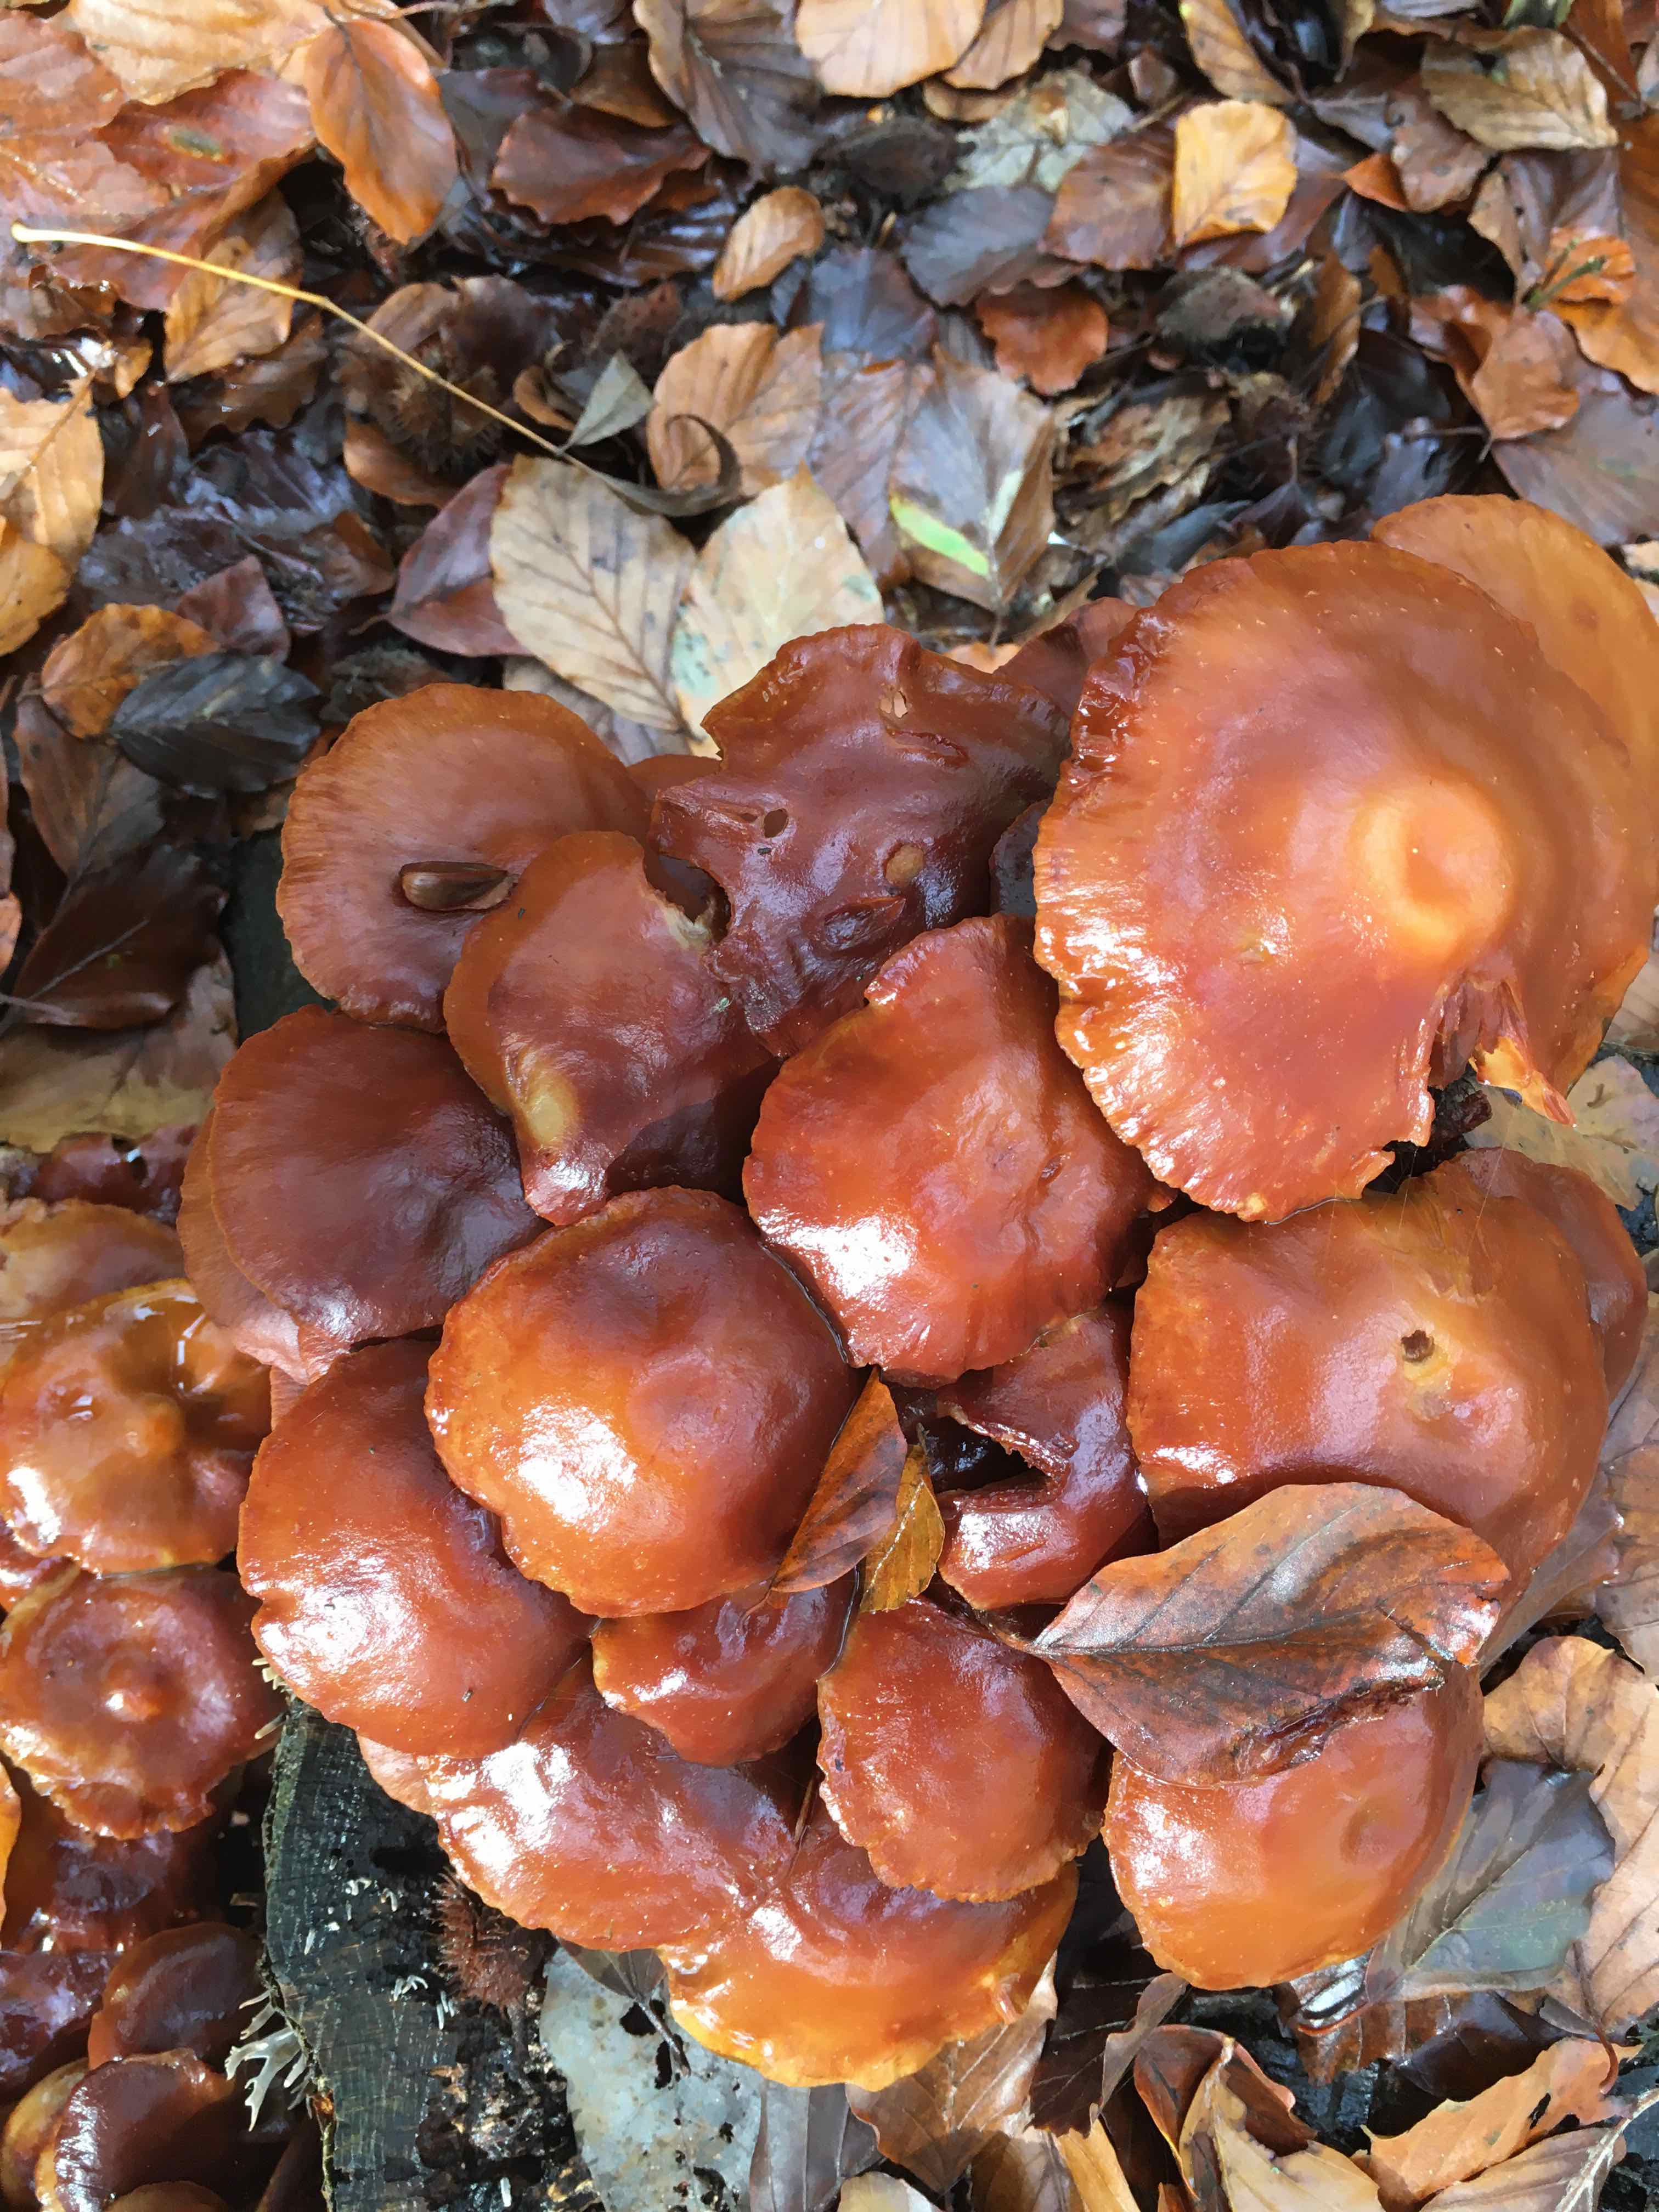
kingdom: Fungi
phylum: Basidiomycota
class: Agaricomycetes
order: Agaricales
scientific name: Agaricales
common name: champignonordenen
